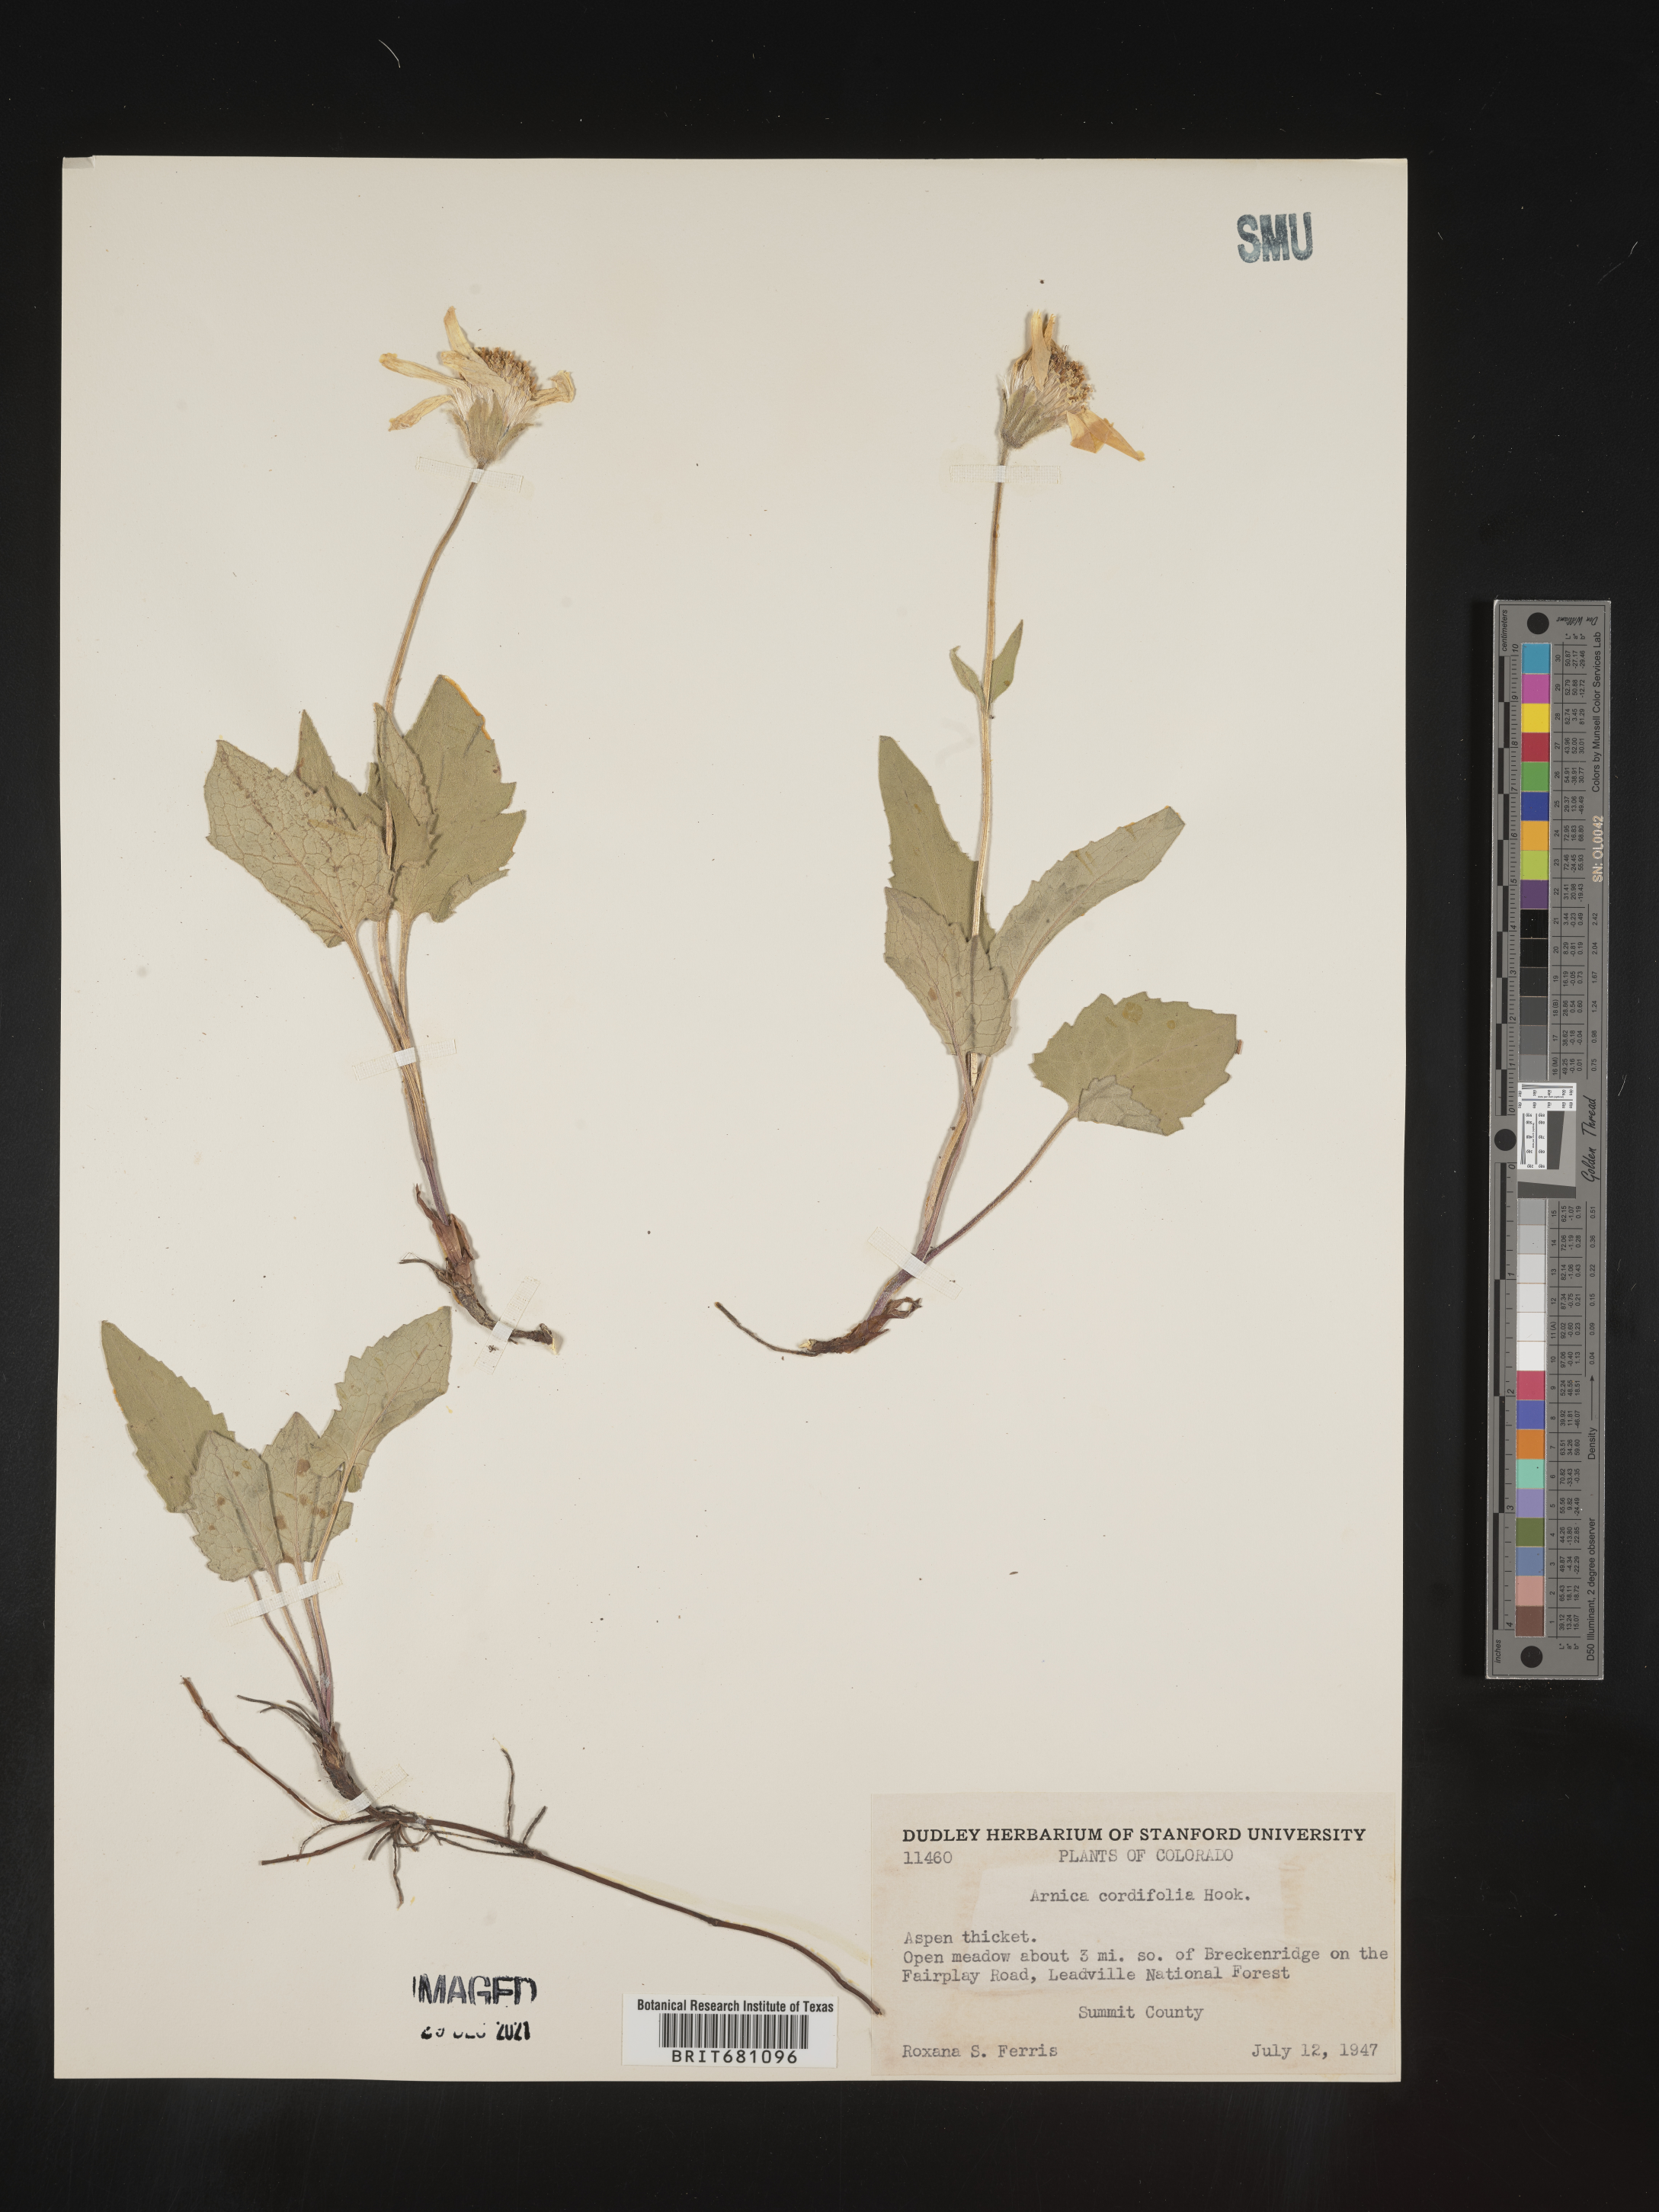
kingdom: Plantae
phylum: Tracheophyta
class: Magnoliopsida
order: Asterales
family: Asteraceae
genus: Arnica
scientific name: Arnica cordifolia
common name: Heart-leaf arnica
